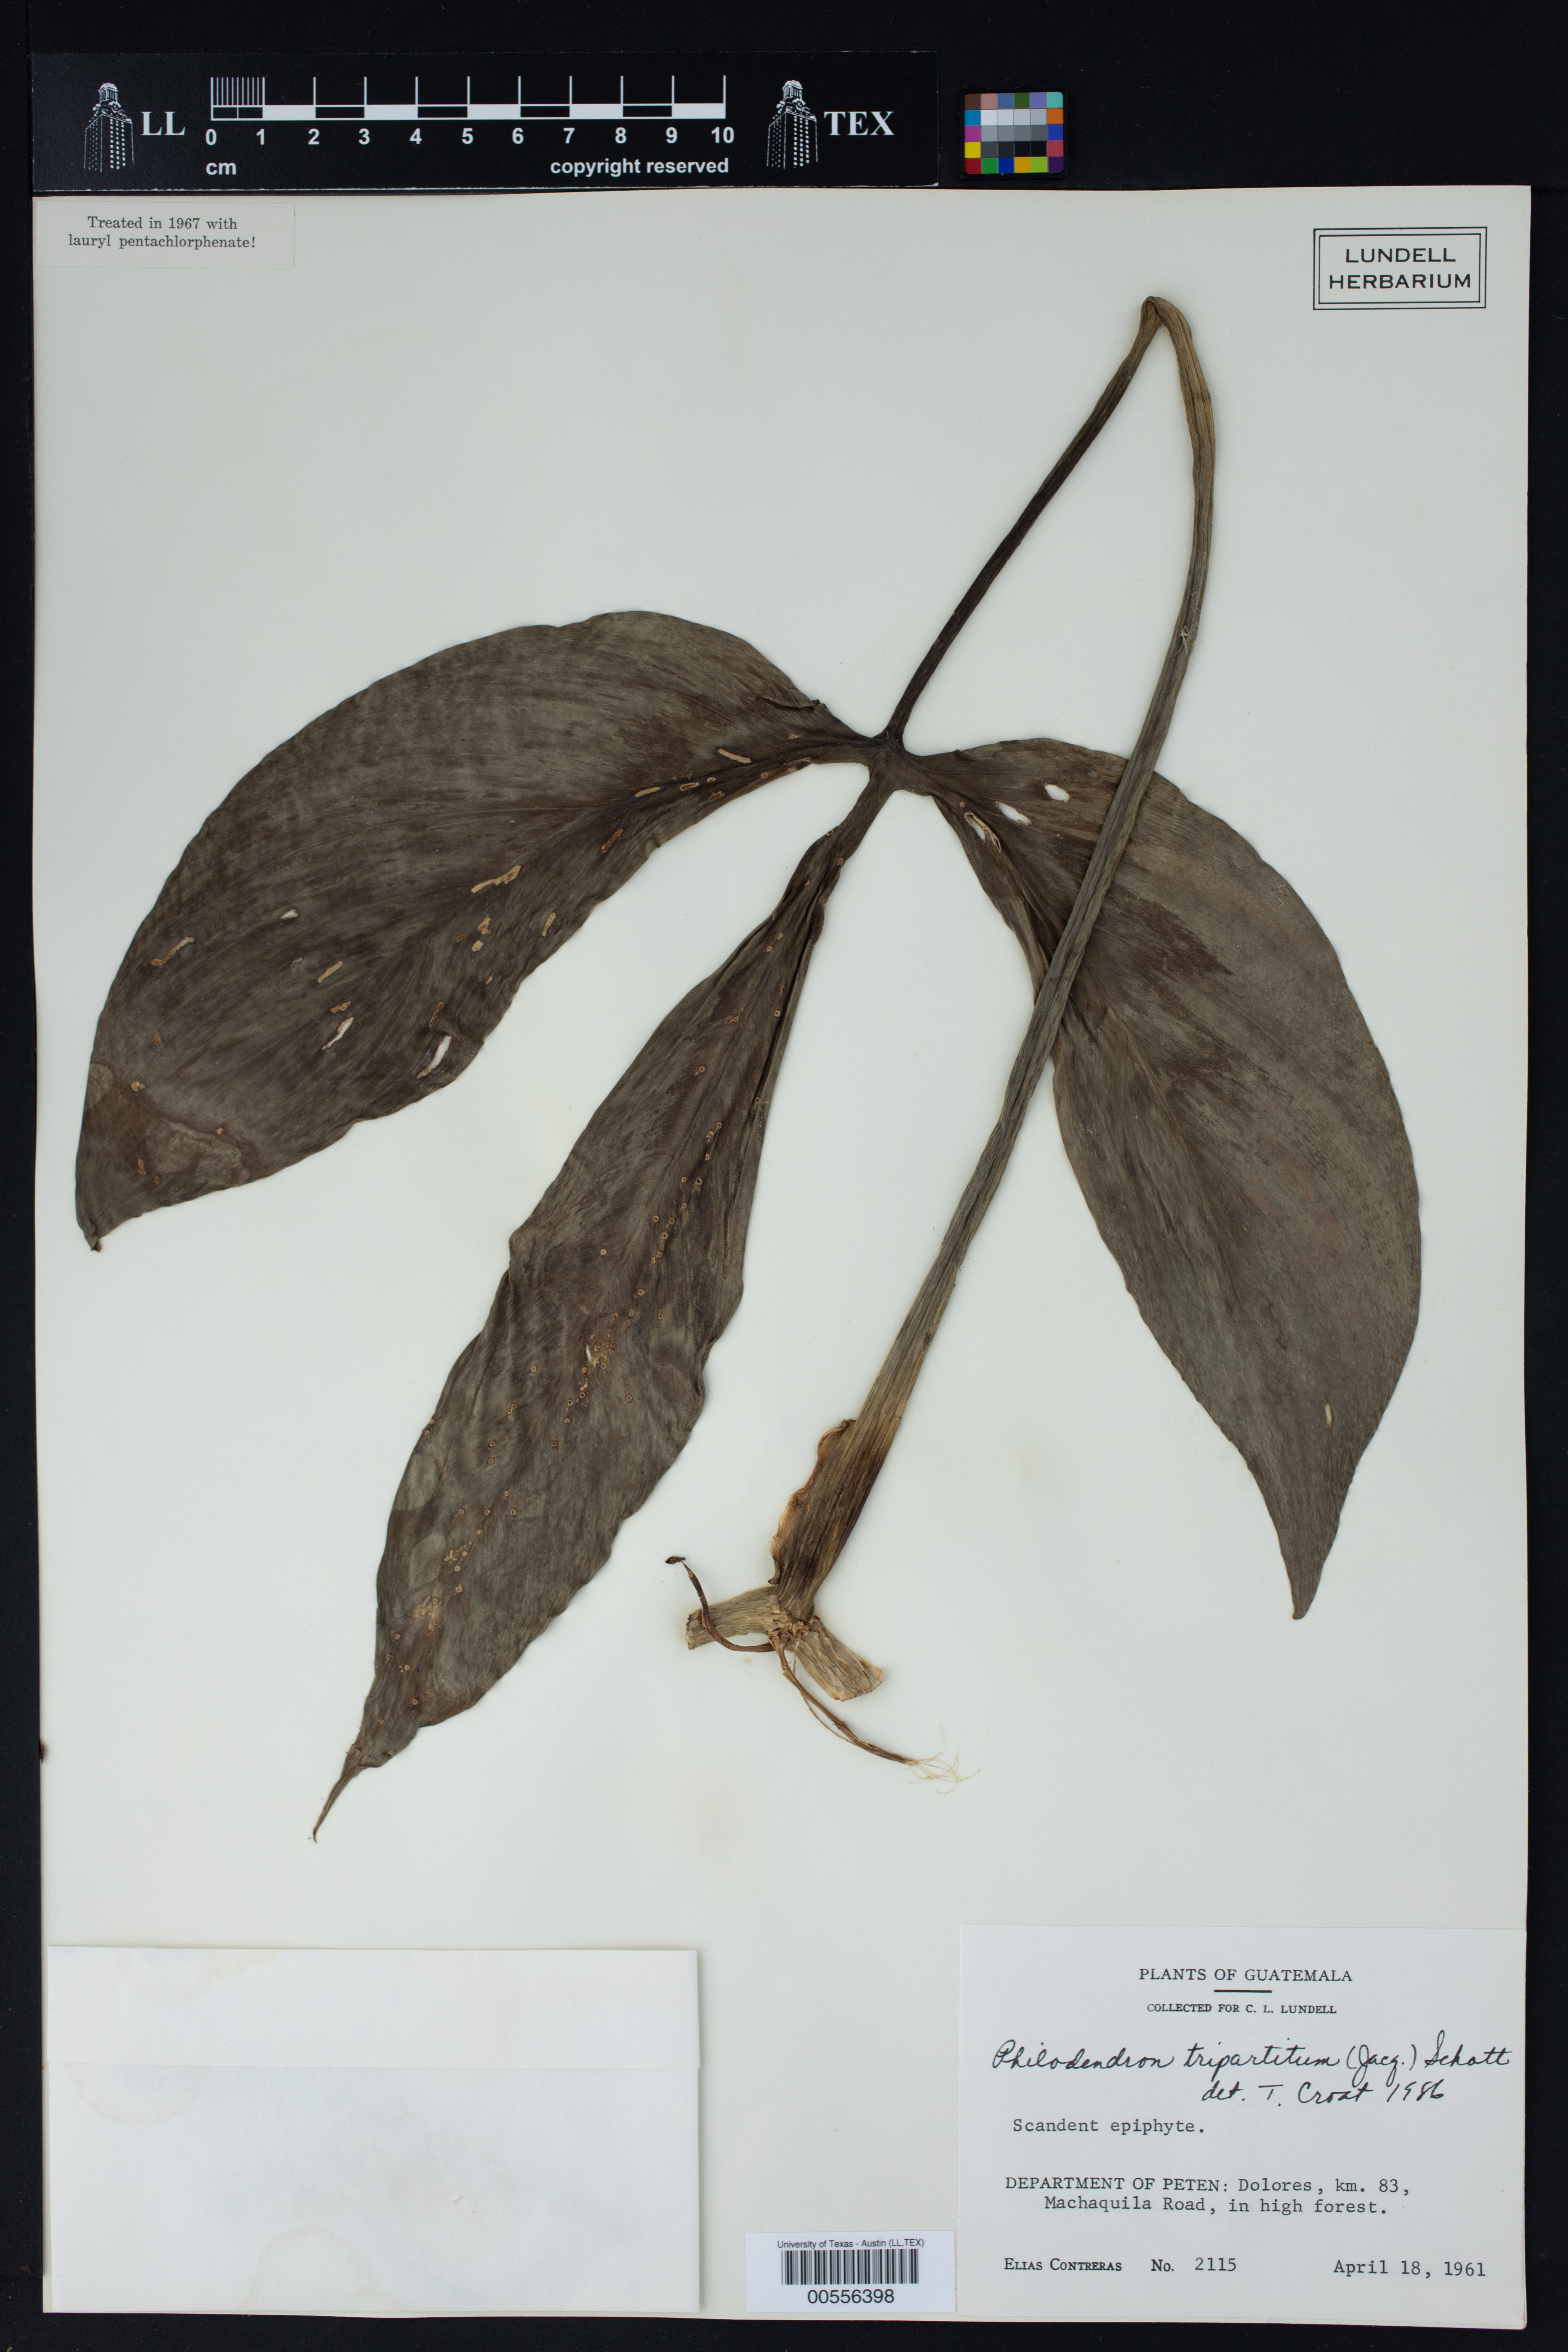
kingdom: Plantae
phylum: Tracheophyta
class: Liliopsida
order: Alismatales
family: Araceae
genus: Philodendron
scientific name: Philodendron tripartitum
